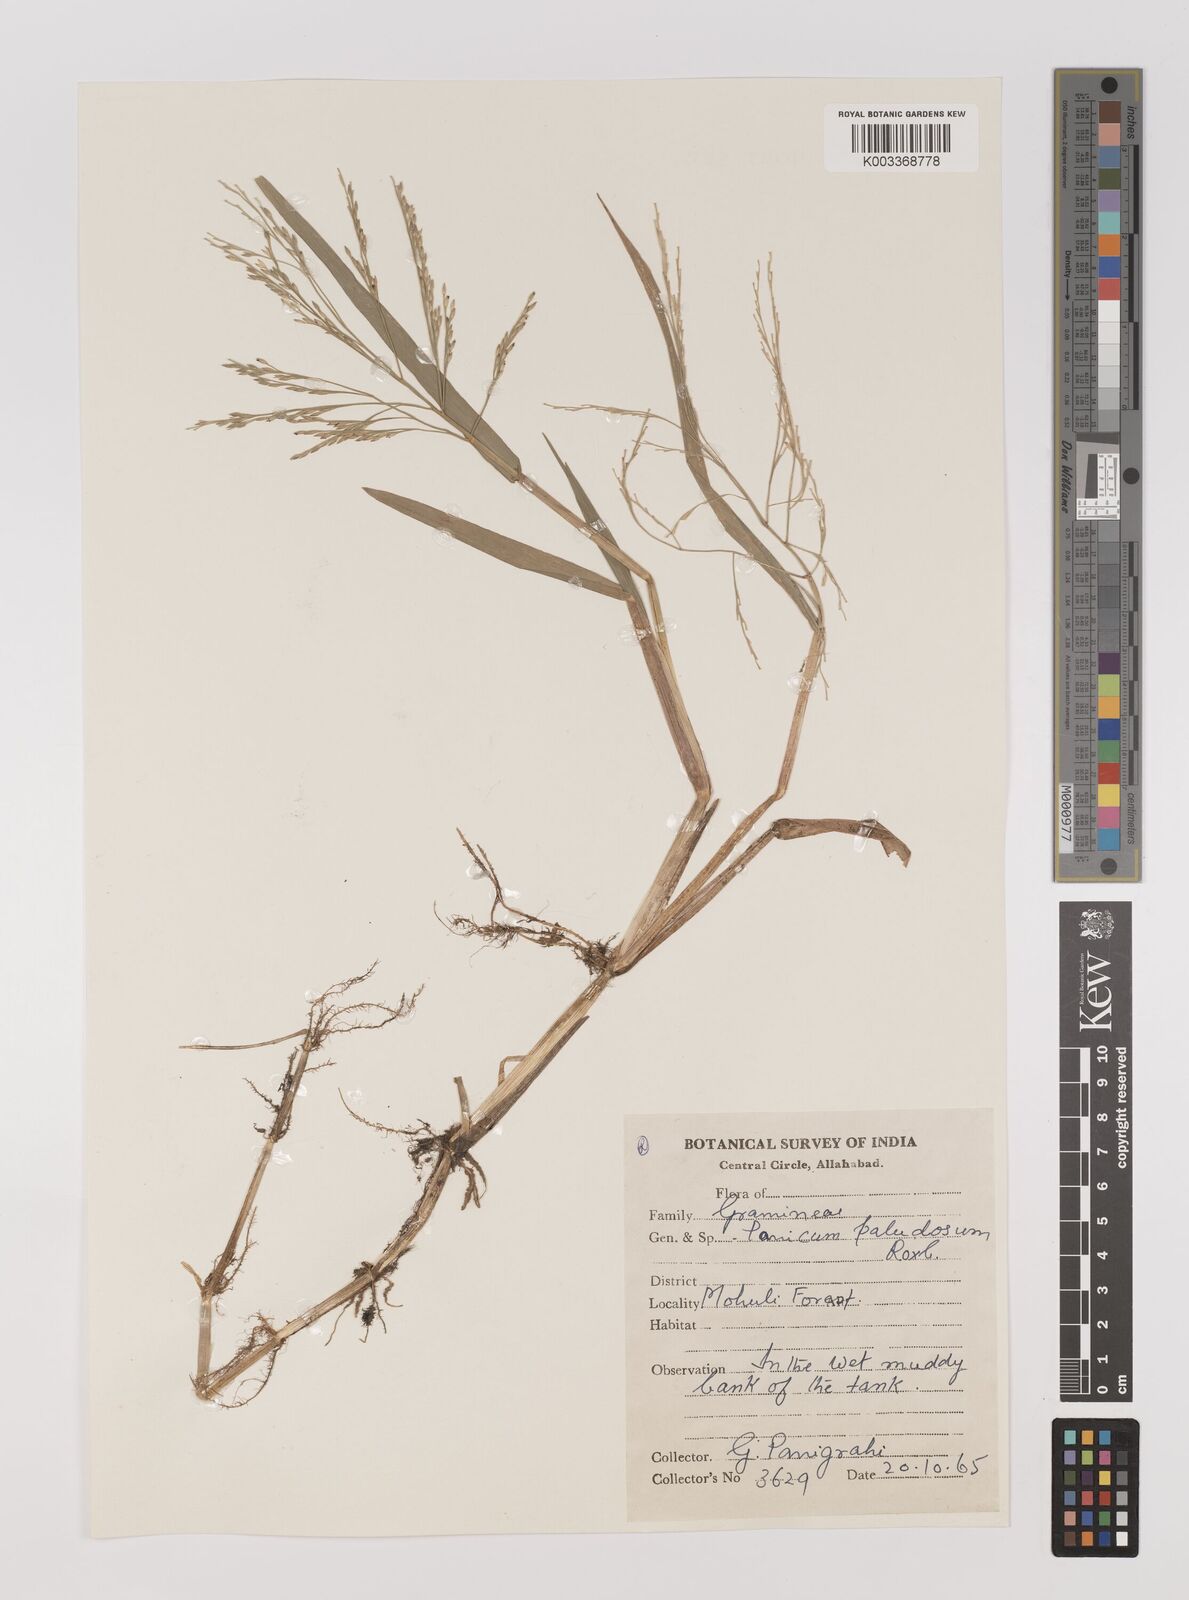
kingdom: Plantae
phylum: Tracheophyta
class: Liliopsida
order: Poales
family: Poaceae
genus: Louisiella
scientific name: Louisiella paludosa
